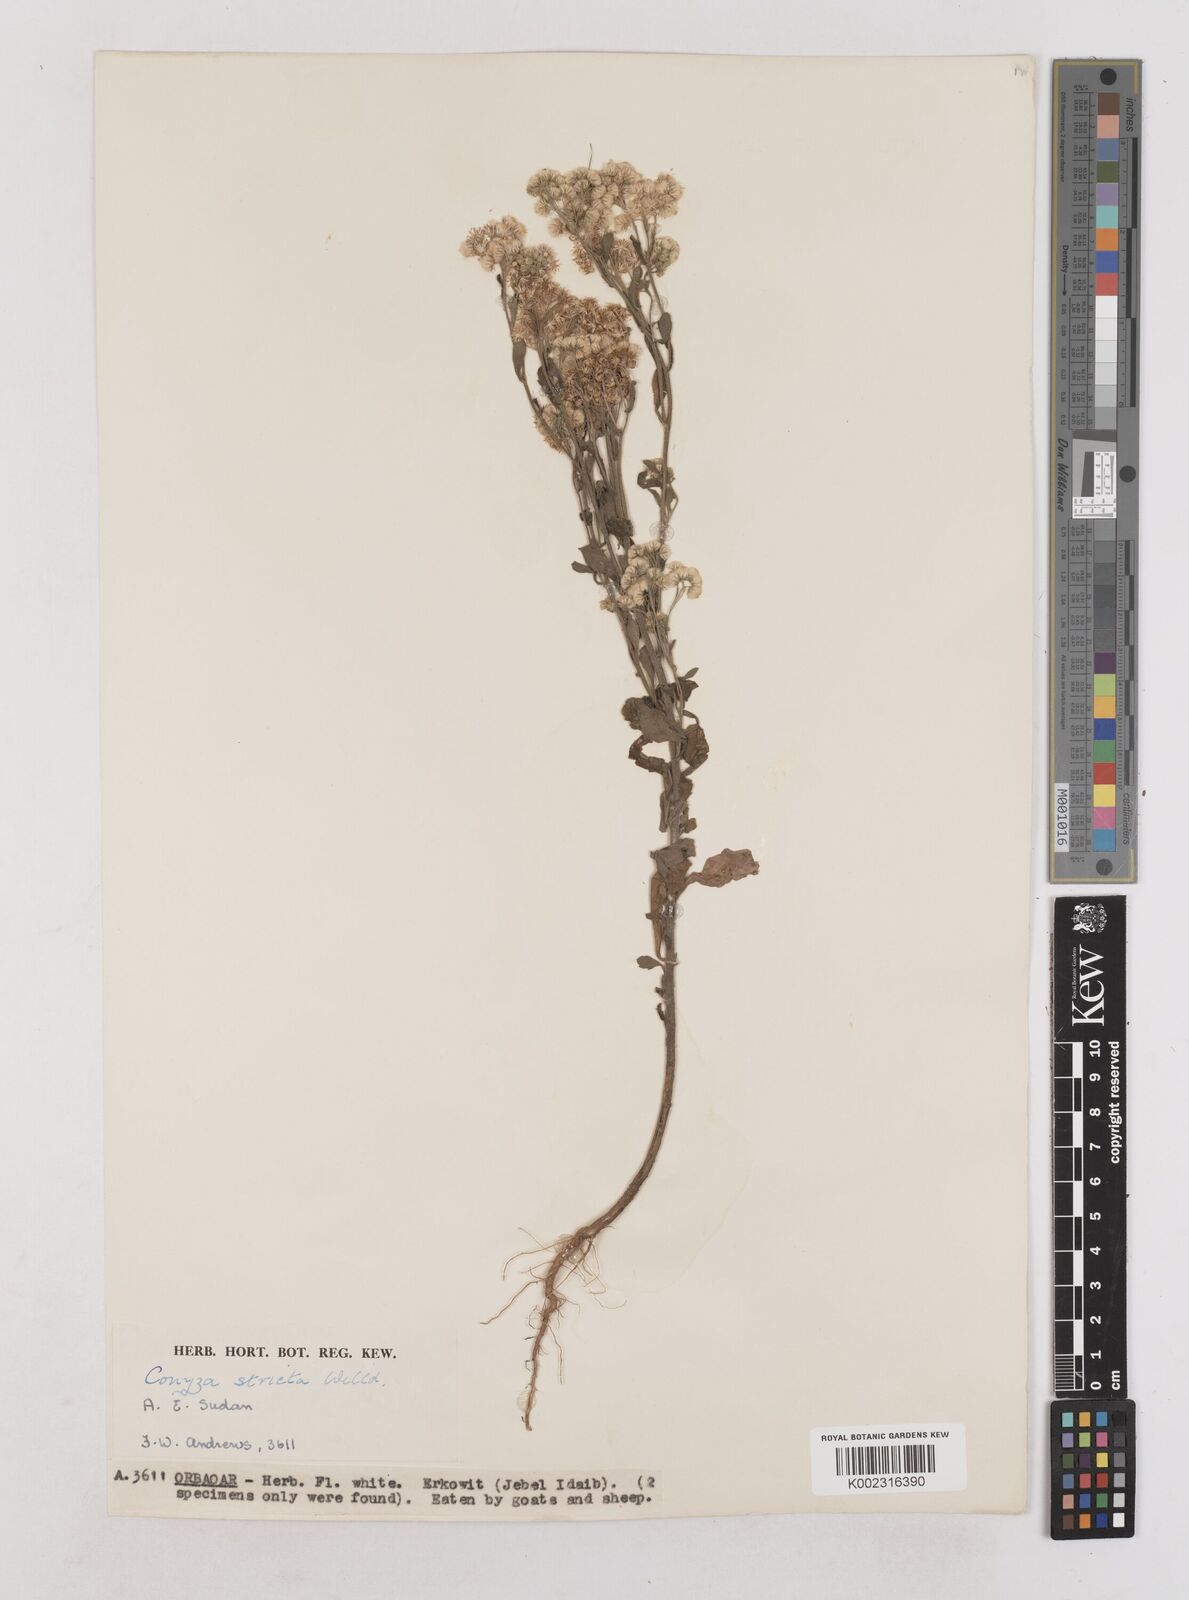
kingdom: Plantae
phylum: Tracheophyta
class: Magnoliopsida
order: Asterales
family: Asteraceae
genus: Nidorella
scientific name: Nidorella triloba
